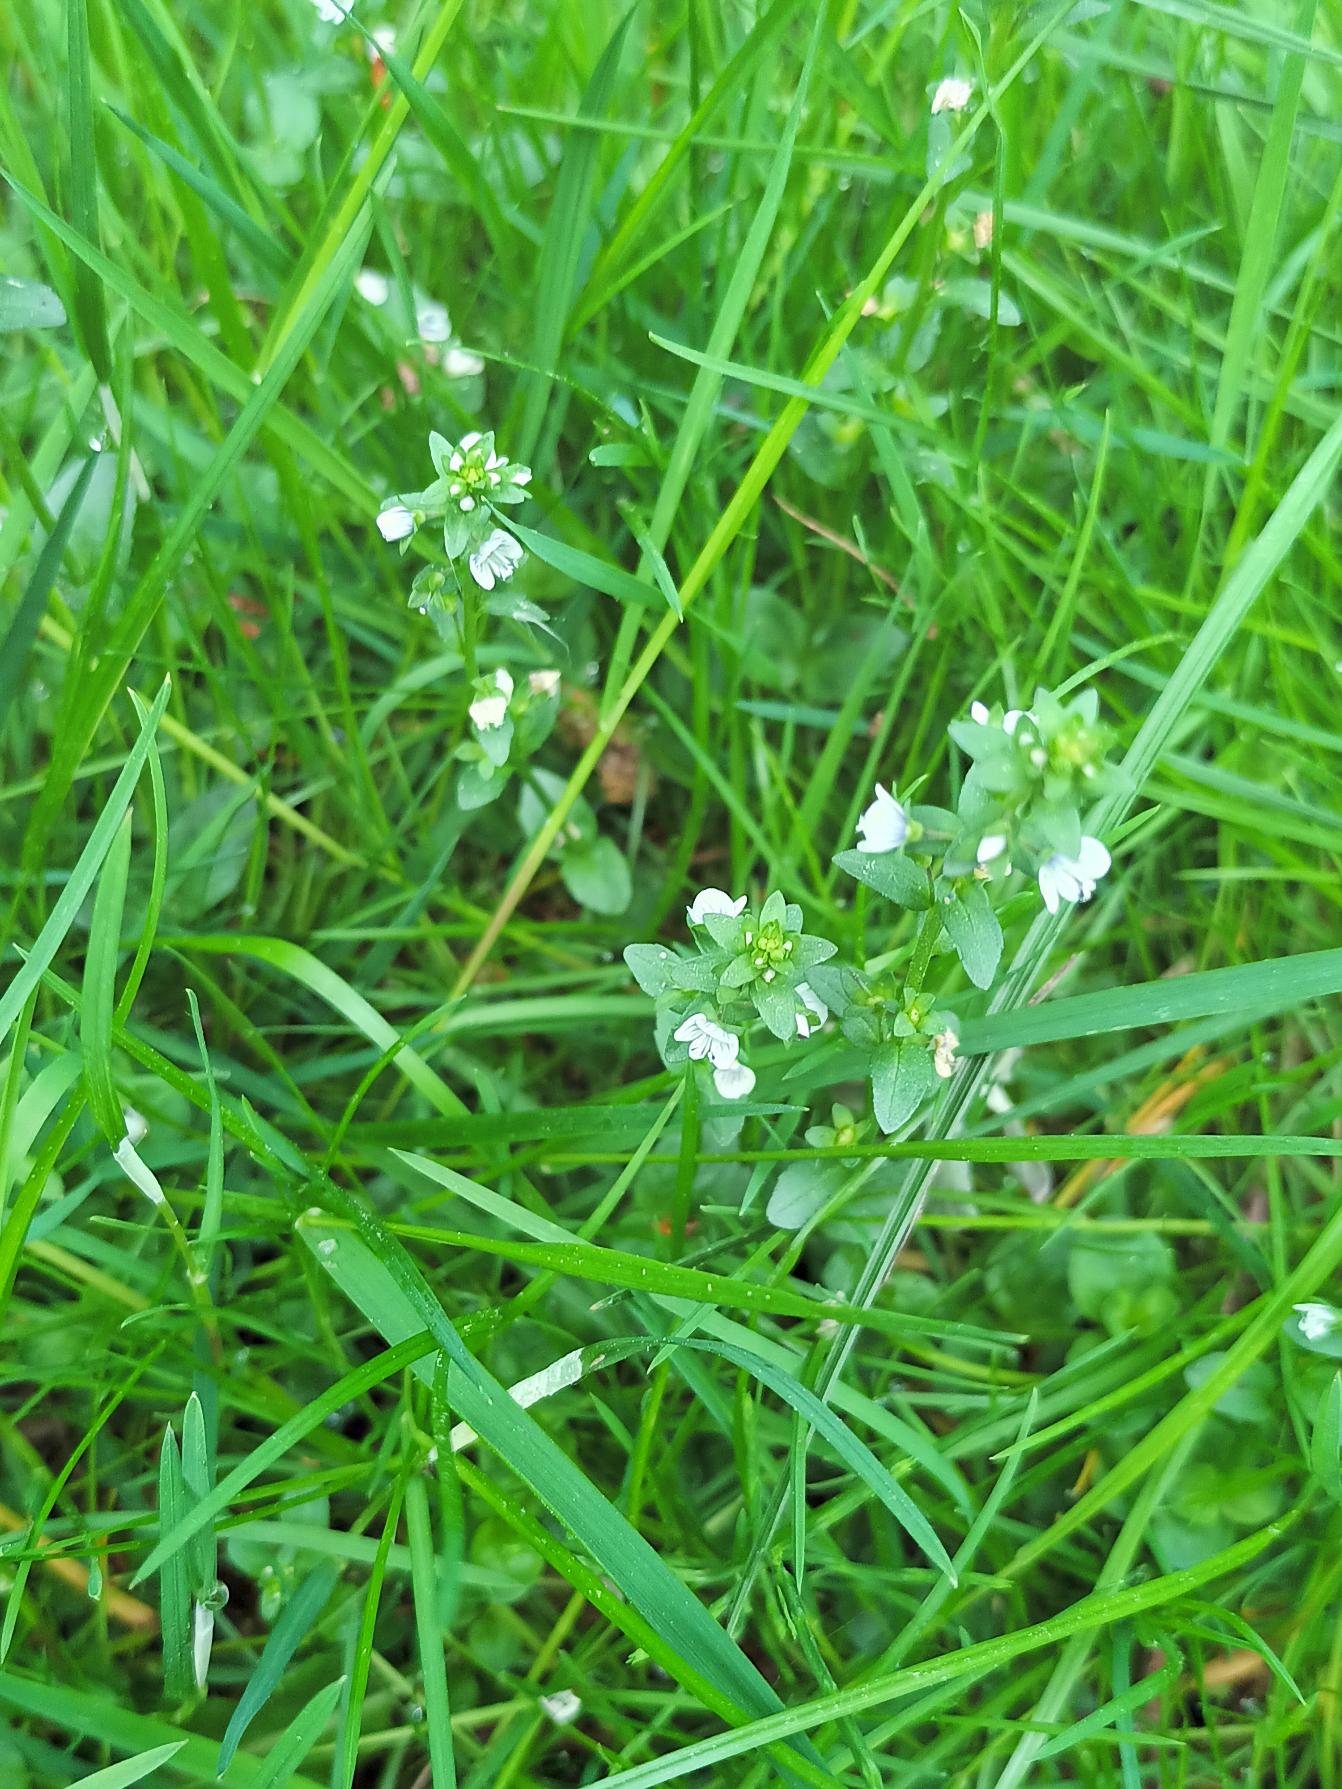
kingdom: Plantae
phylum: Tracheophyta
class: Magnoliopsida
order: Lamiales
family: Plantaginaceae
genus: Veronica
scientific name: Veronica serpyllifolia
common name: Glat ærenpris
